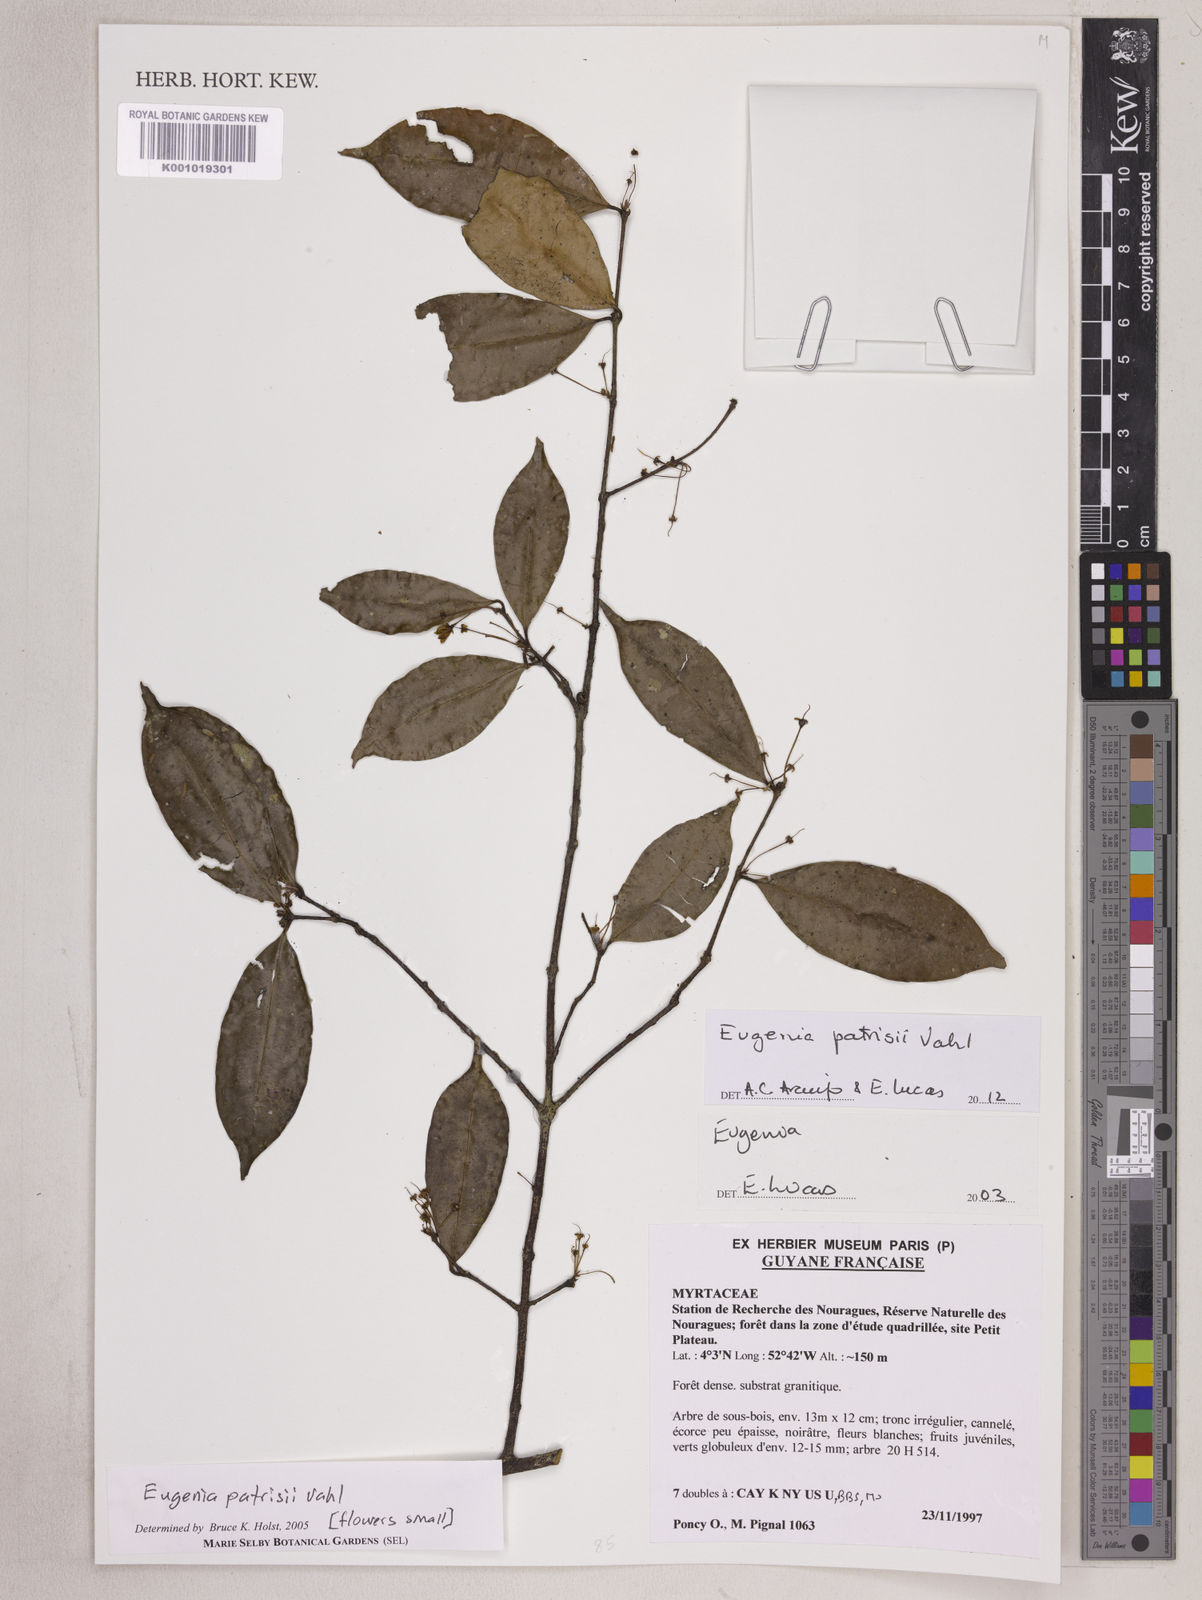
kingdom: Plantae
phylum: Tracheophyta
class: Magnoliopsida
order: Myrtales
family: Myrtaceae
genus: Eugenia
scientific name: Eugenia patrisii
